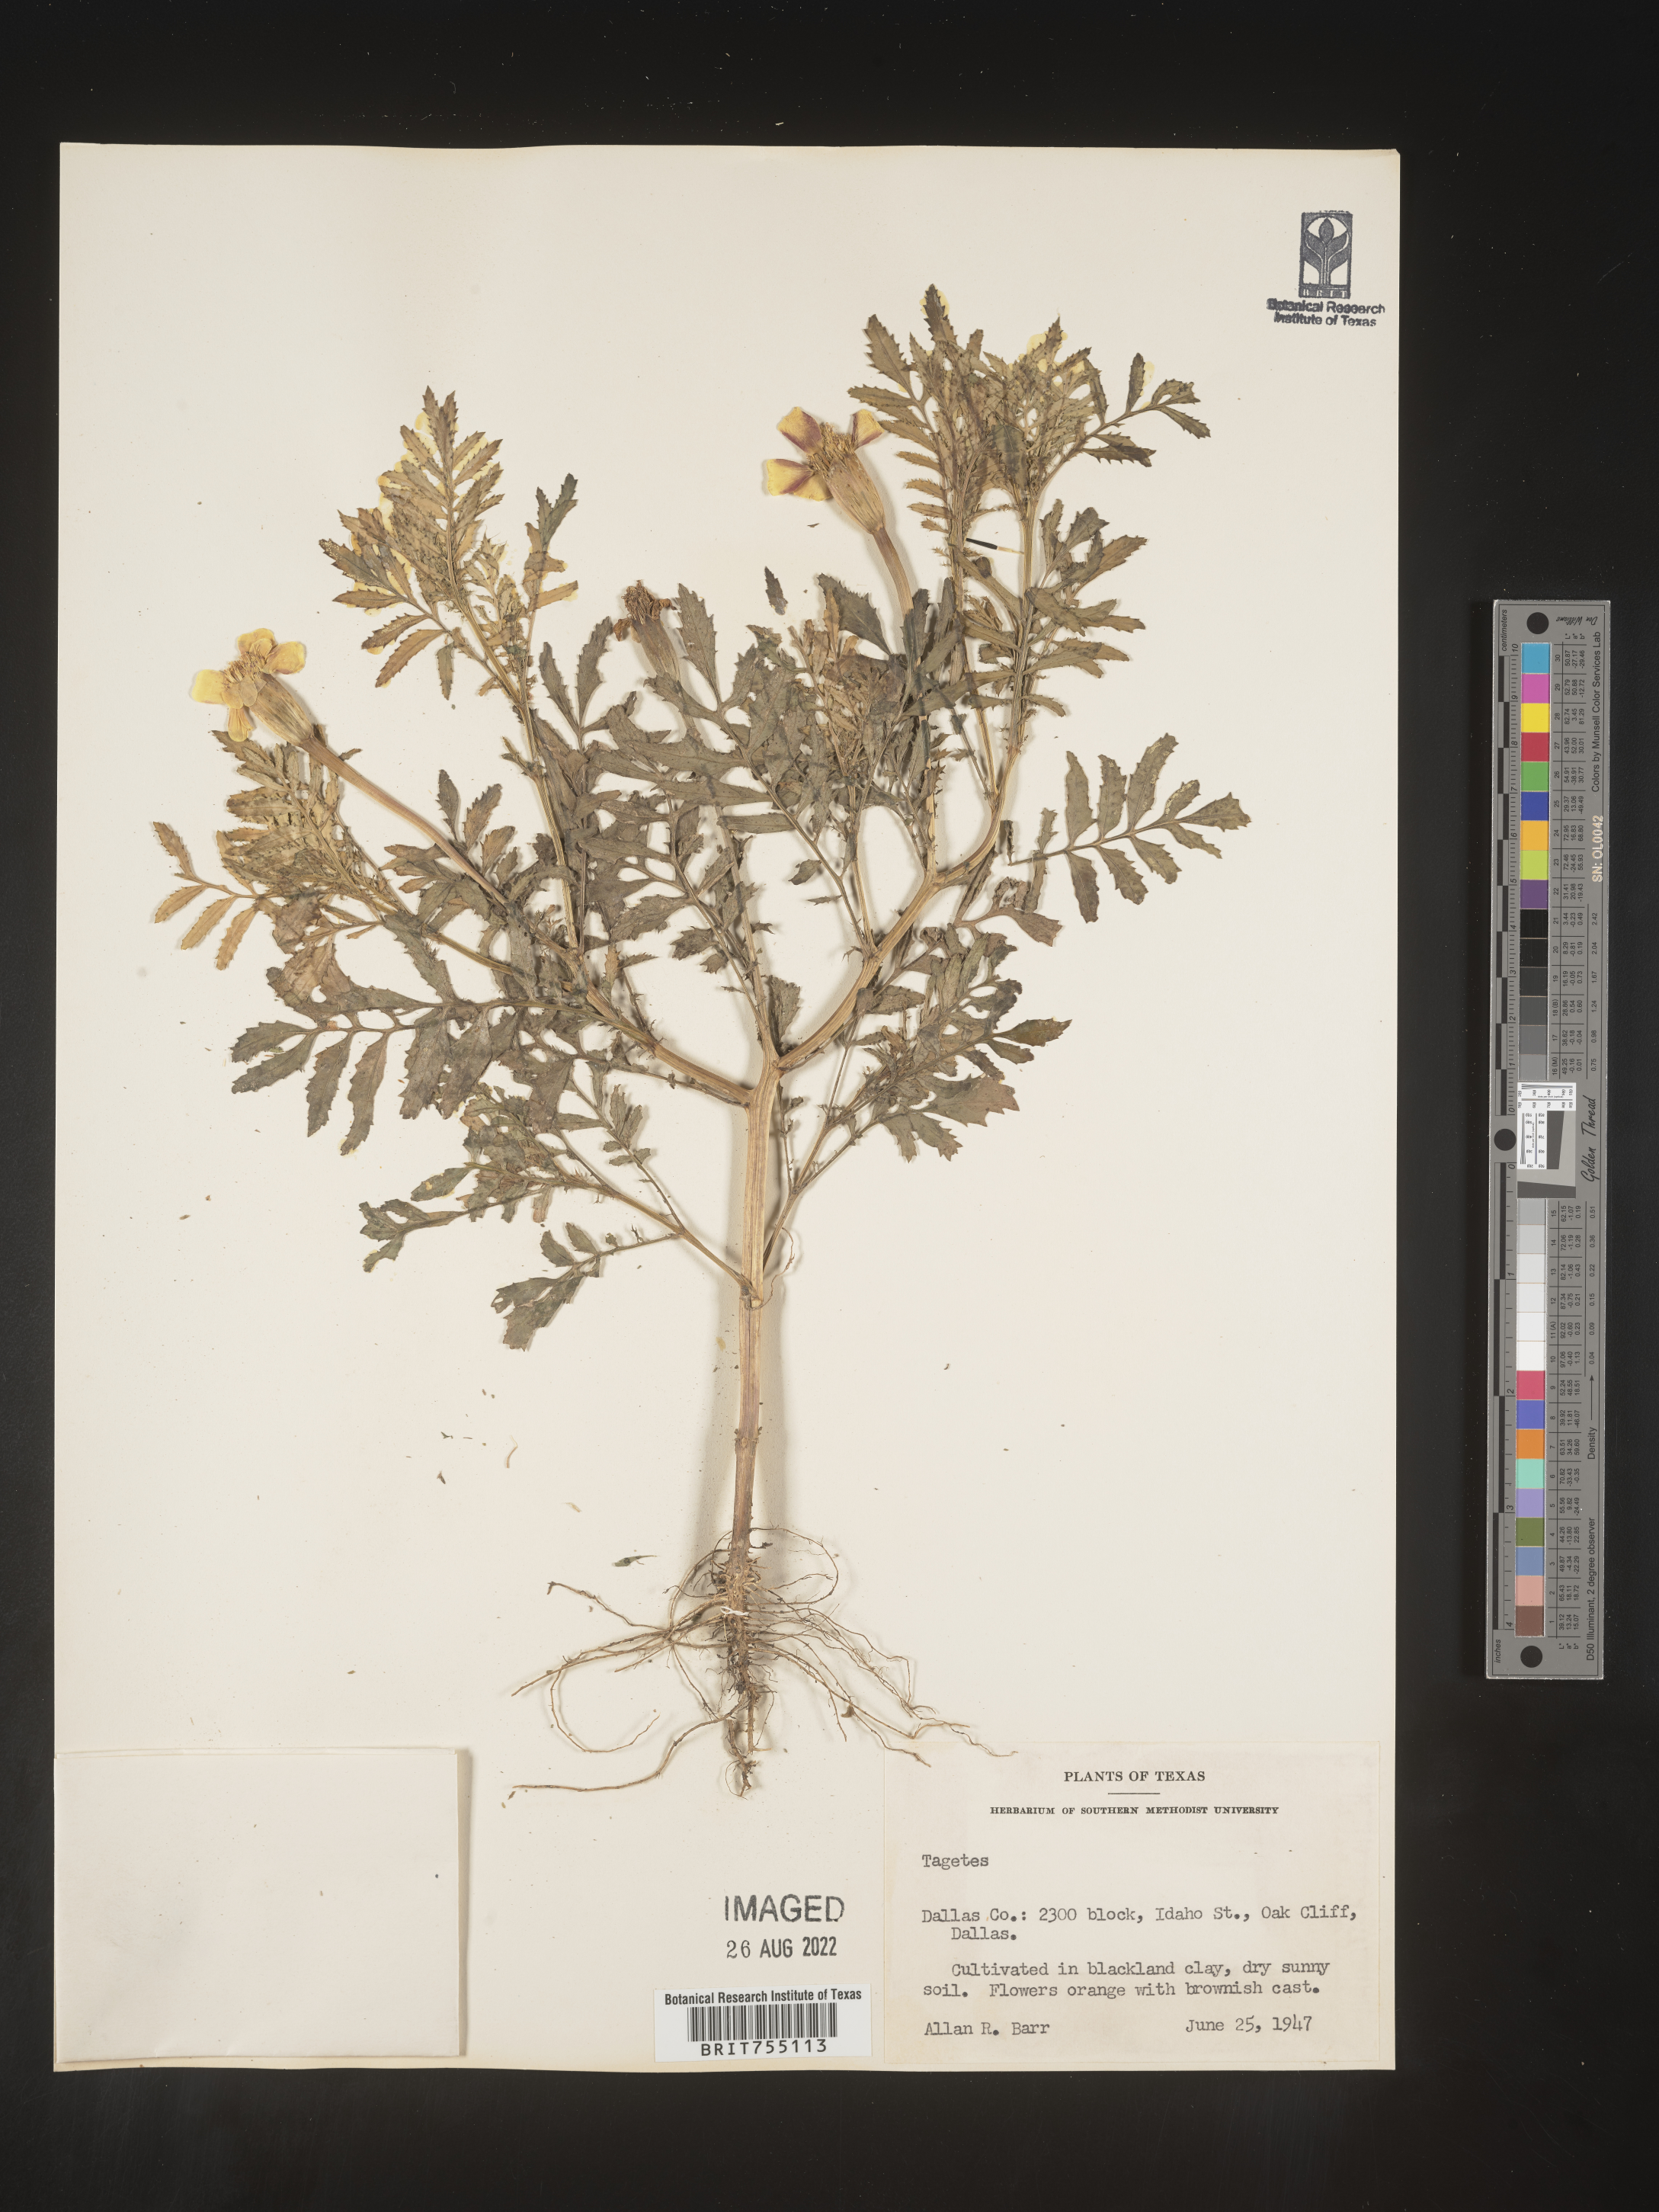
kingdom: Plantae
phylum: Tracheophyta
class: Magnoliopsida
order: Asterales
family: Asteraceae
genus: Tagetes
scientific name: Tagetes
